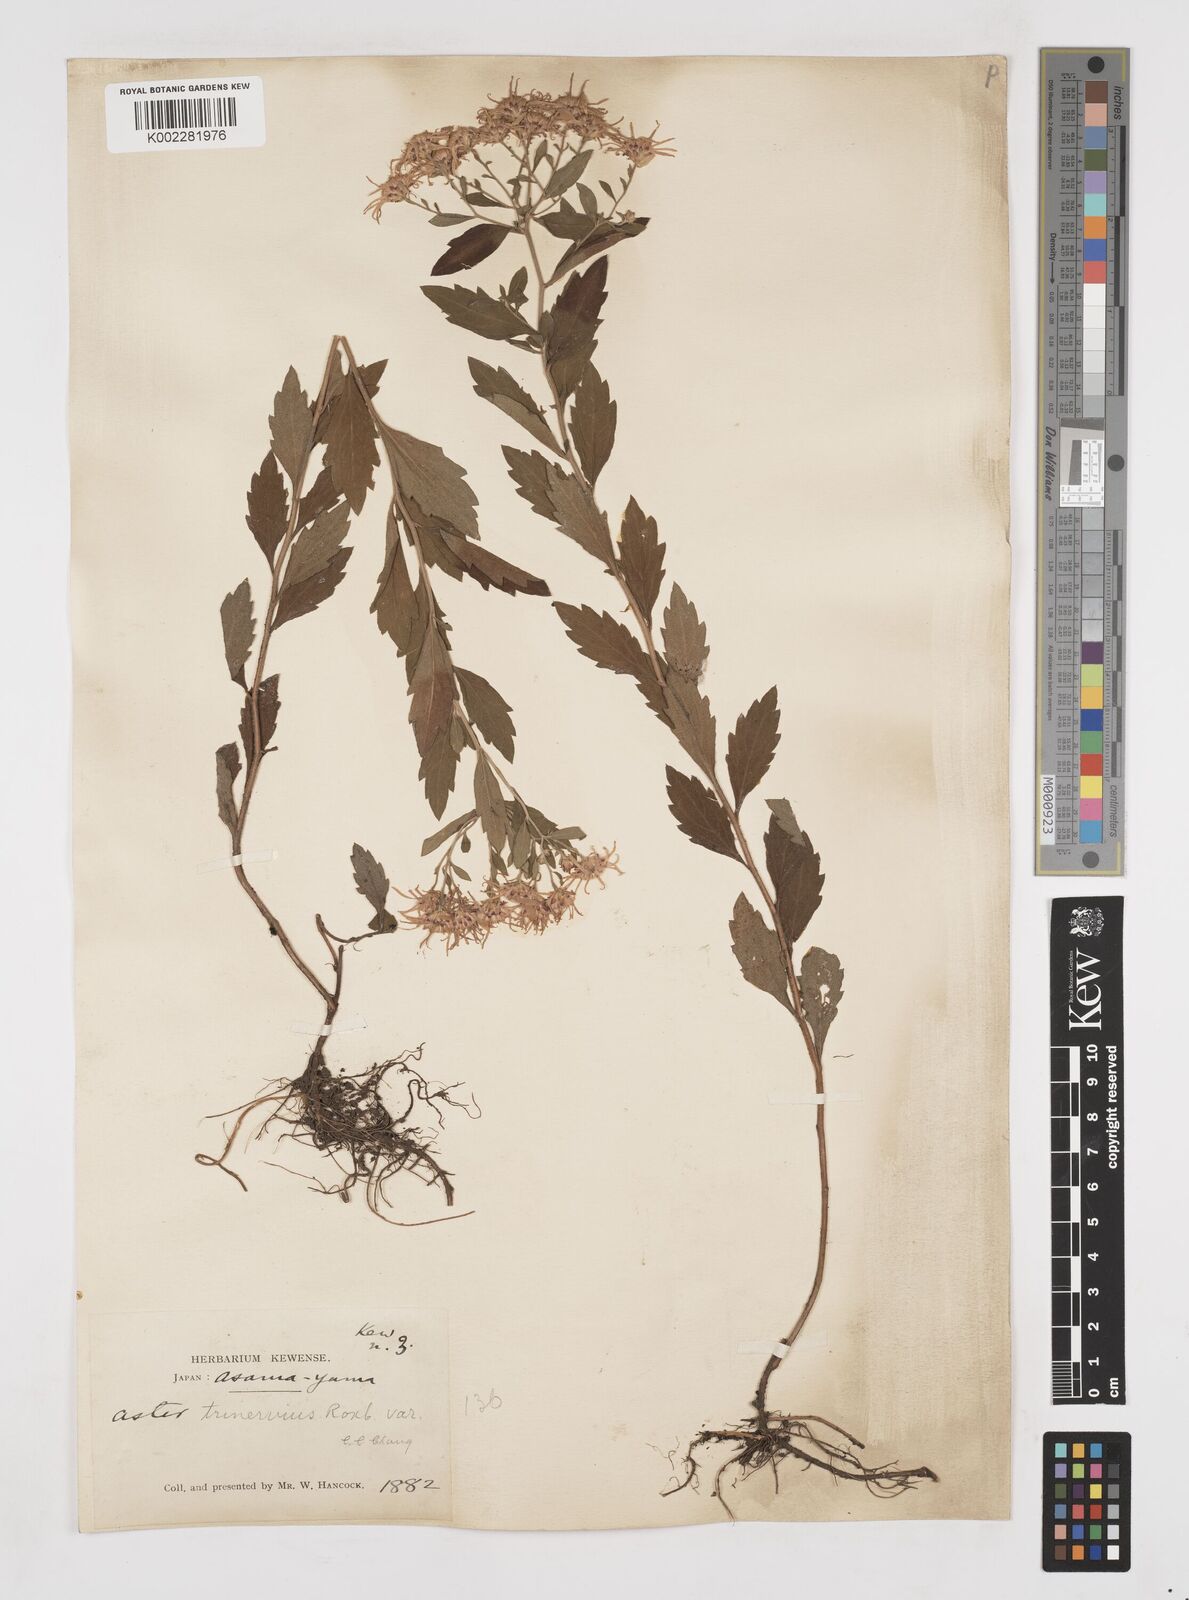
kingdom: Plantae
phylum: Tracheophyta
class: Magnoliopsida
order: Asterales
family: Asteraceae
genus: Aster
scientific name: Aster trinervius
